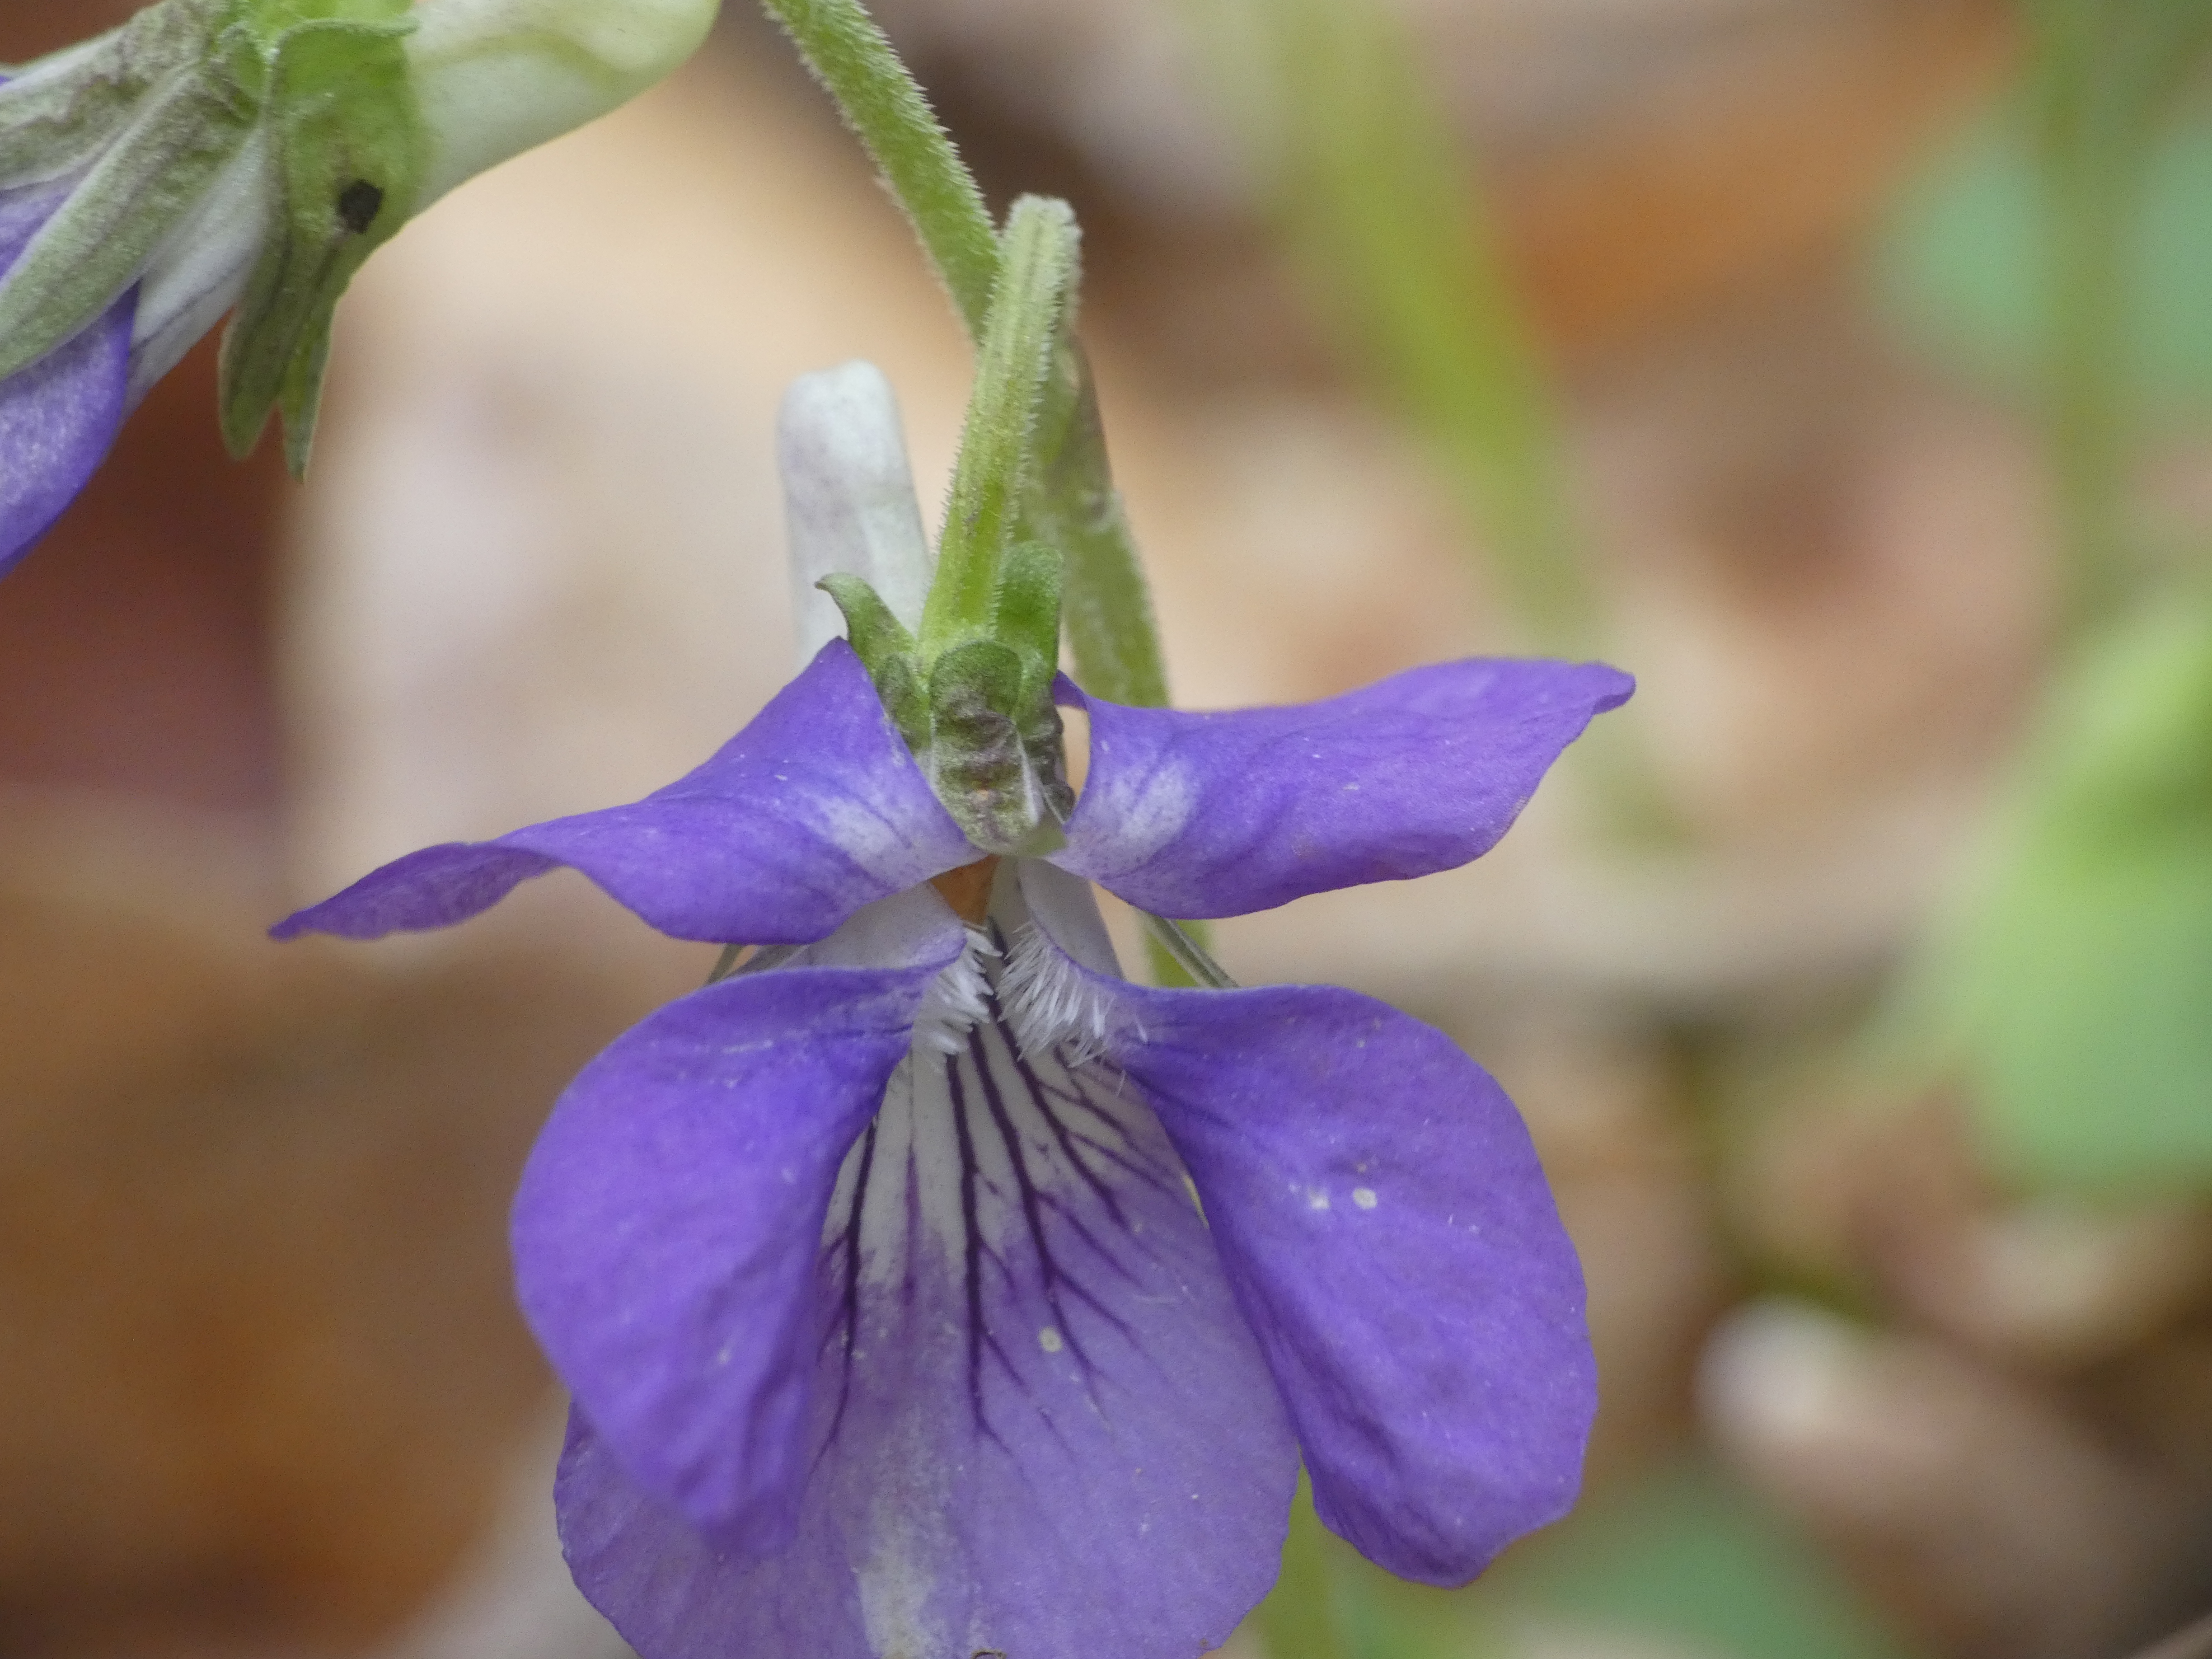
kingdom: Plantae
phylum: Tracheophyta
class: Magnoliopsida
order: Malpighiales
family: Violaceae
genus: Viola
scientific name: Viola riviniana
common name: Krat-viol
